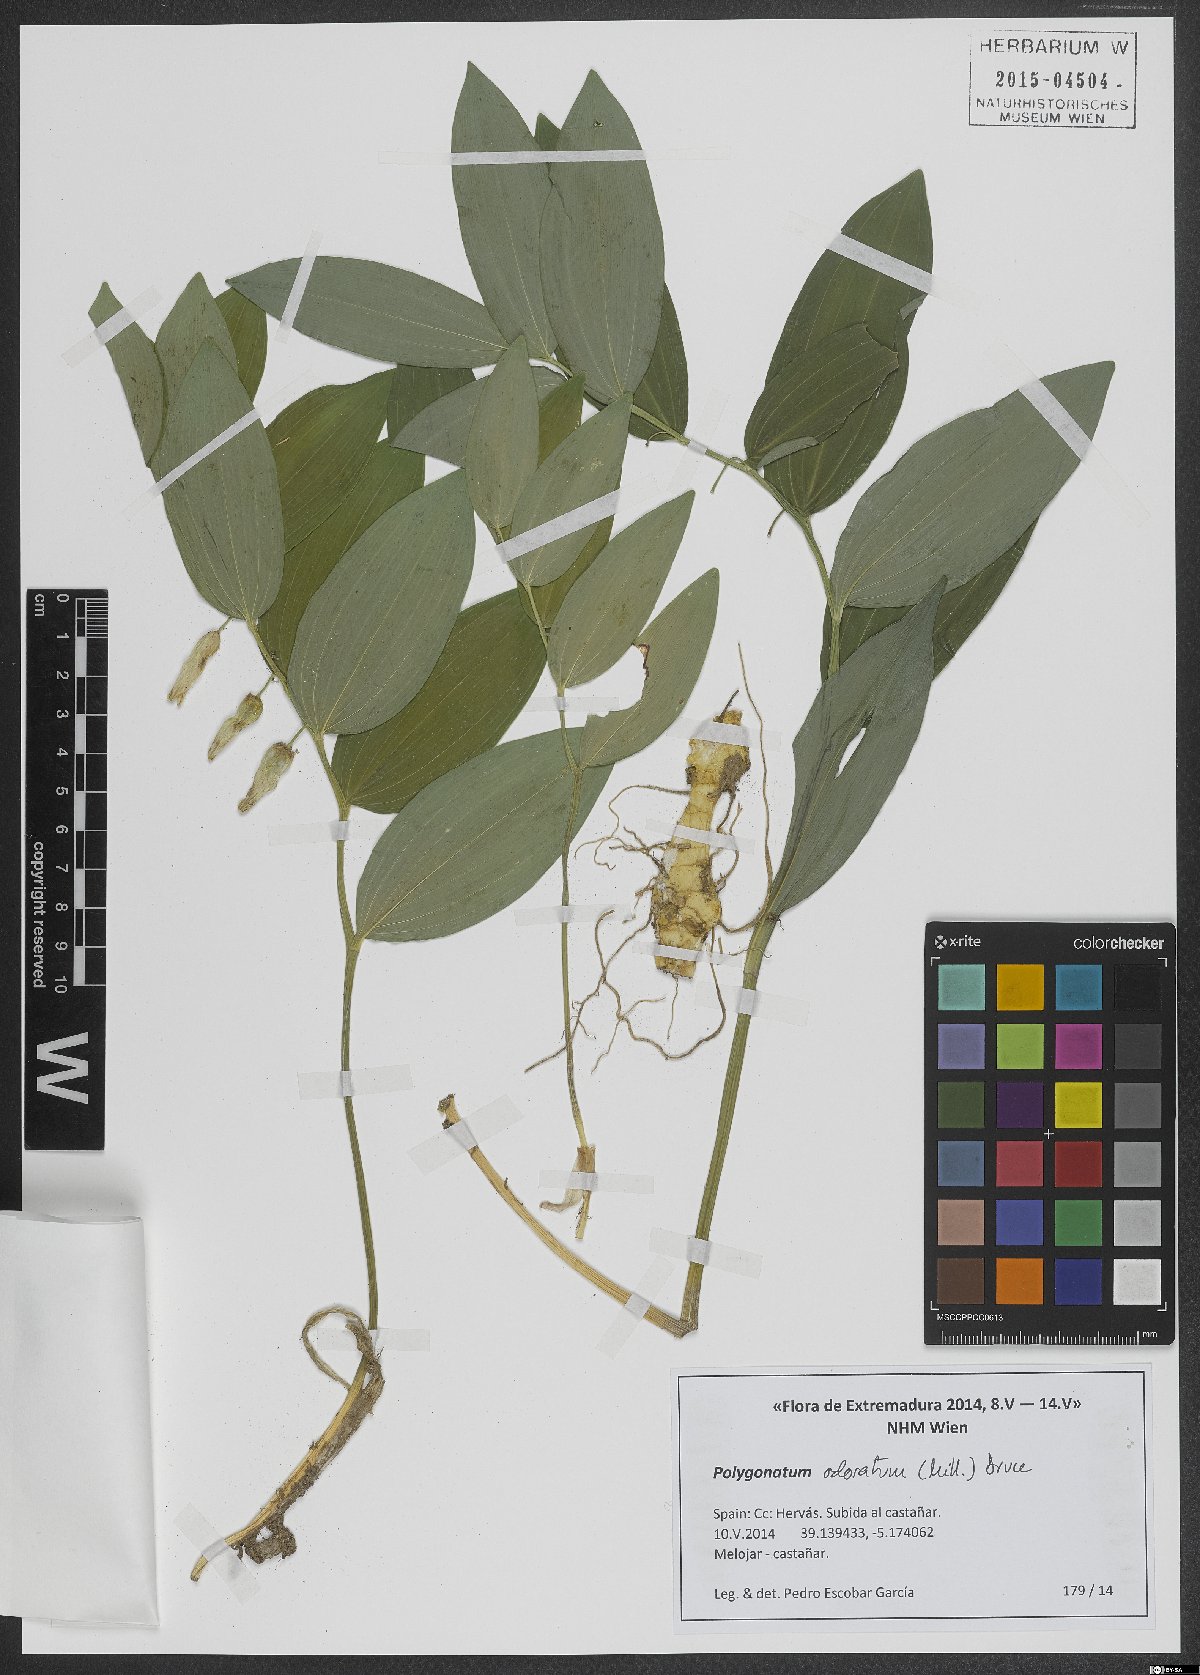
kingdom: Plantae
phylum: Tracheophyta
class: Liliopsida
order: Asparagales
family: Asparagaceae
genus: Polygonatum
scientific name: Polygonatum odoratum
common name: Angular solomon's-seal
